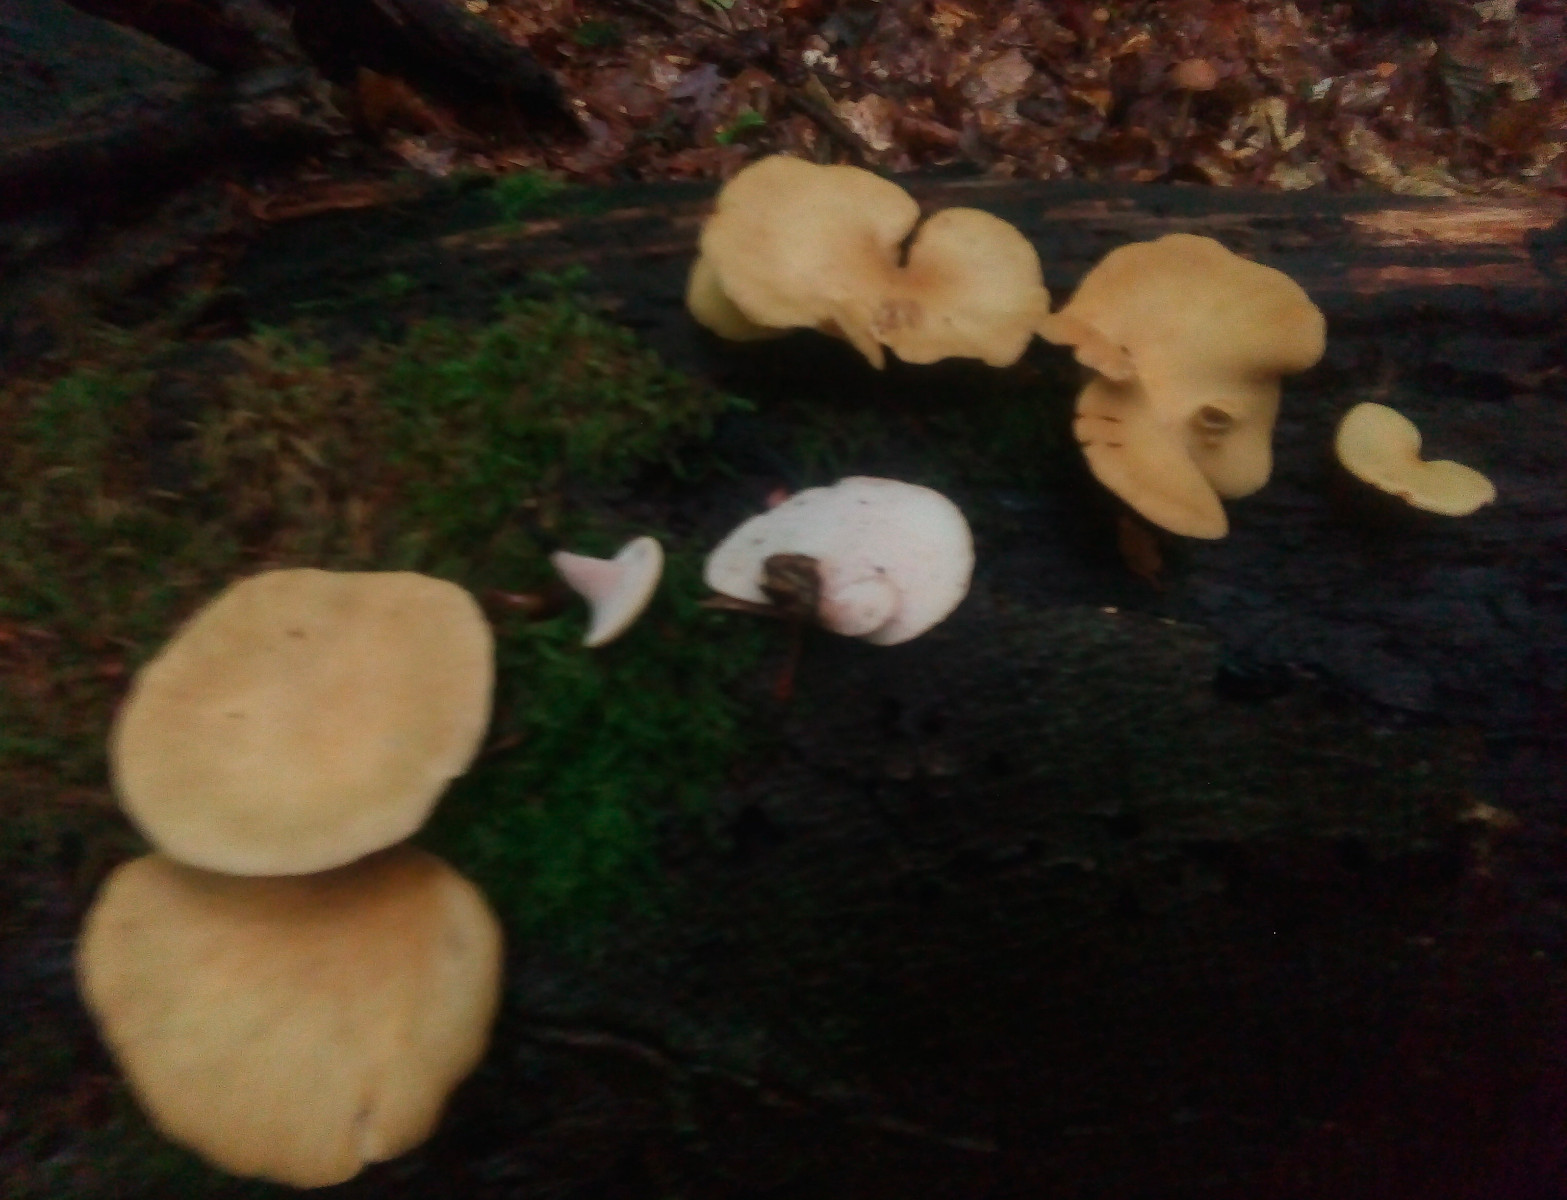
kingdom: Fungi
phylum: Basidiomycota
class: Agaricomycetes
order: Polyporales
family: Polyporaceae
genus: Cerioporus
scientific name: Cerioporus varius
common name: foranderlig stilkporesvamp
